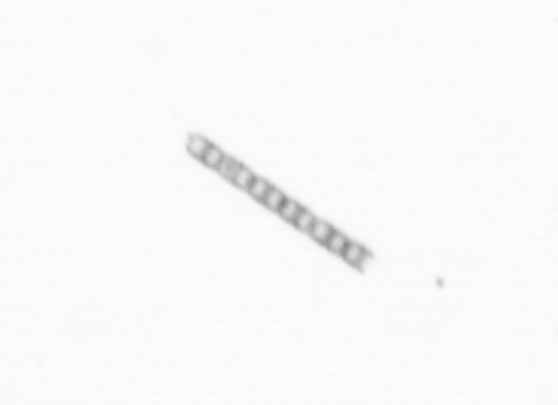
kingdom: Chromista
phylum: Ochrophyta
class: Bacillariophyceae
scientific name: Bacillariophyceae
